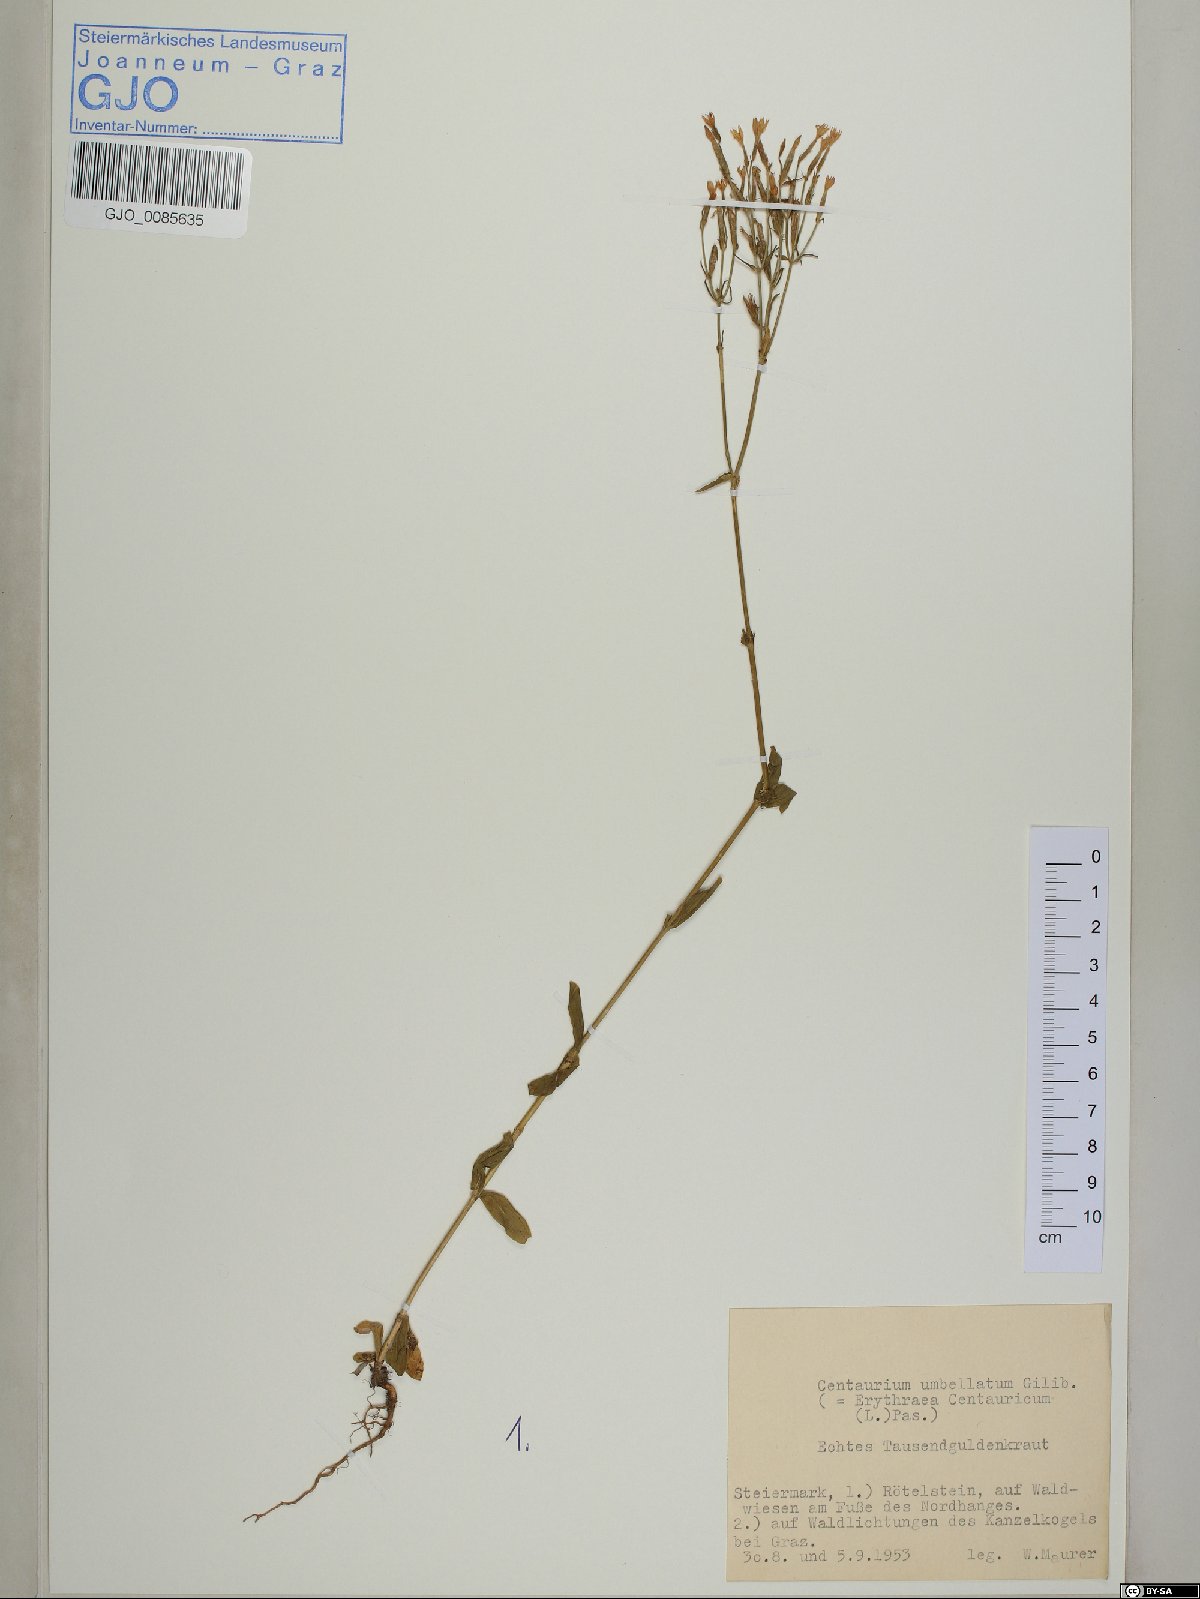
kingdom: Plantae
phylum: Tracheophyta
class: Magnoliopsida
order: Gentianales
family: Gentianaceae
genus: Centaurium
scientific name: Centaurium erythraea
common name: Common centaury
